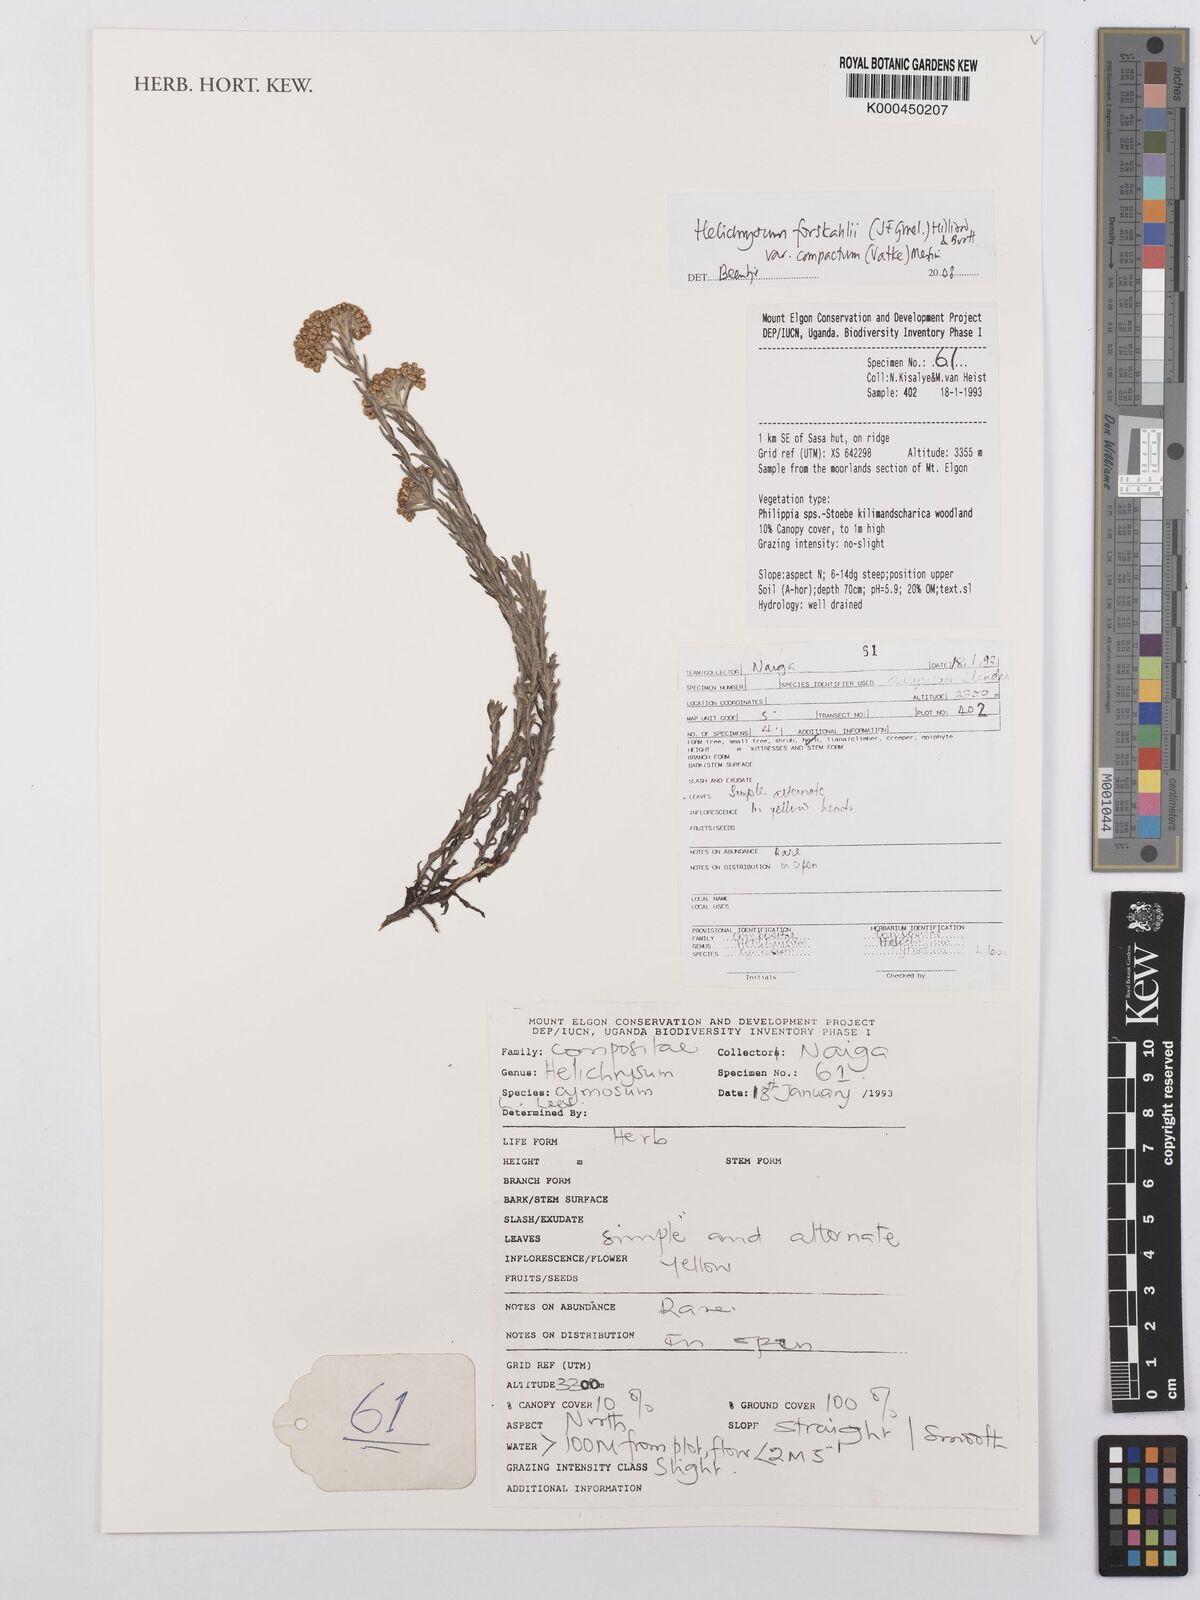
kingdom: Plantae
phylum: Tracheophyta
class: Magnoliopsida
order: Asterales
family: Asteraceae
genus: Helichrysum
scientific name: Helichrysum forskahlii
